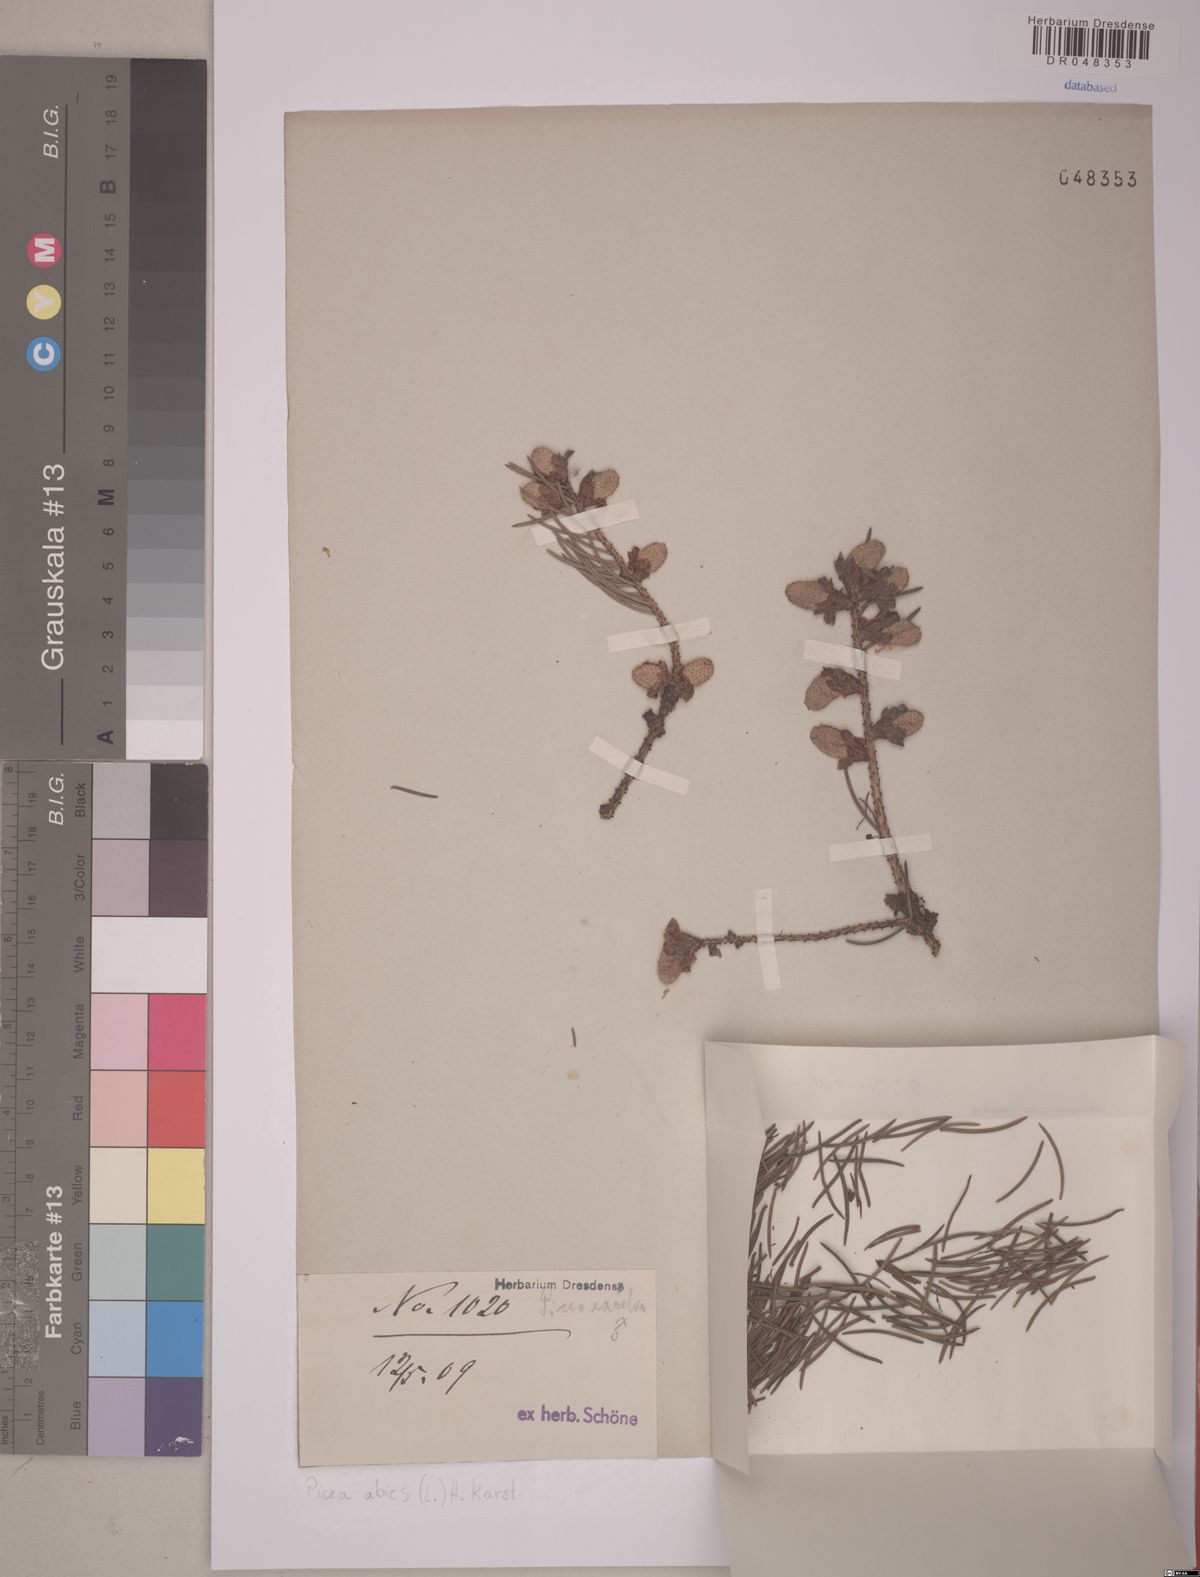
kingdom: Plantae
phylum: Tracheophyta
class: Pinopsida
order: Pinales
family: Pinaceae
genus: Picea
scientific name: Picea abies
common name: Norway spruce
